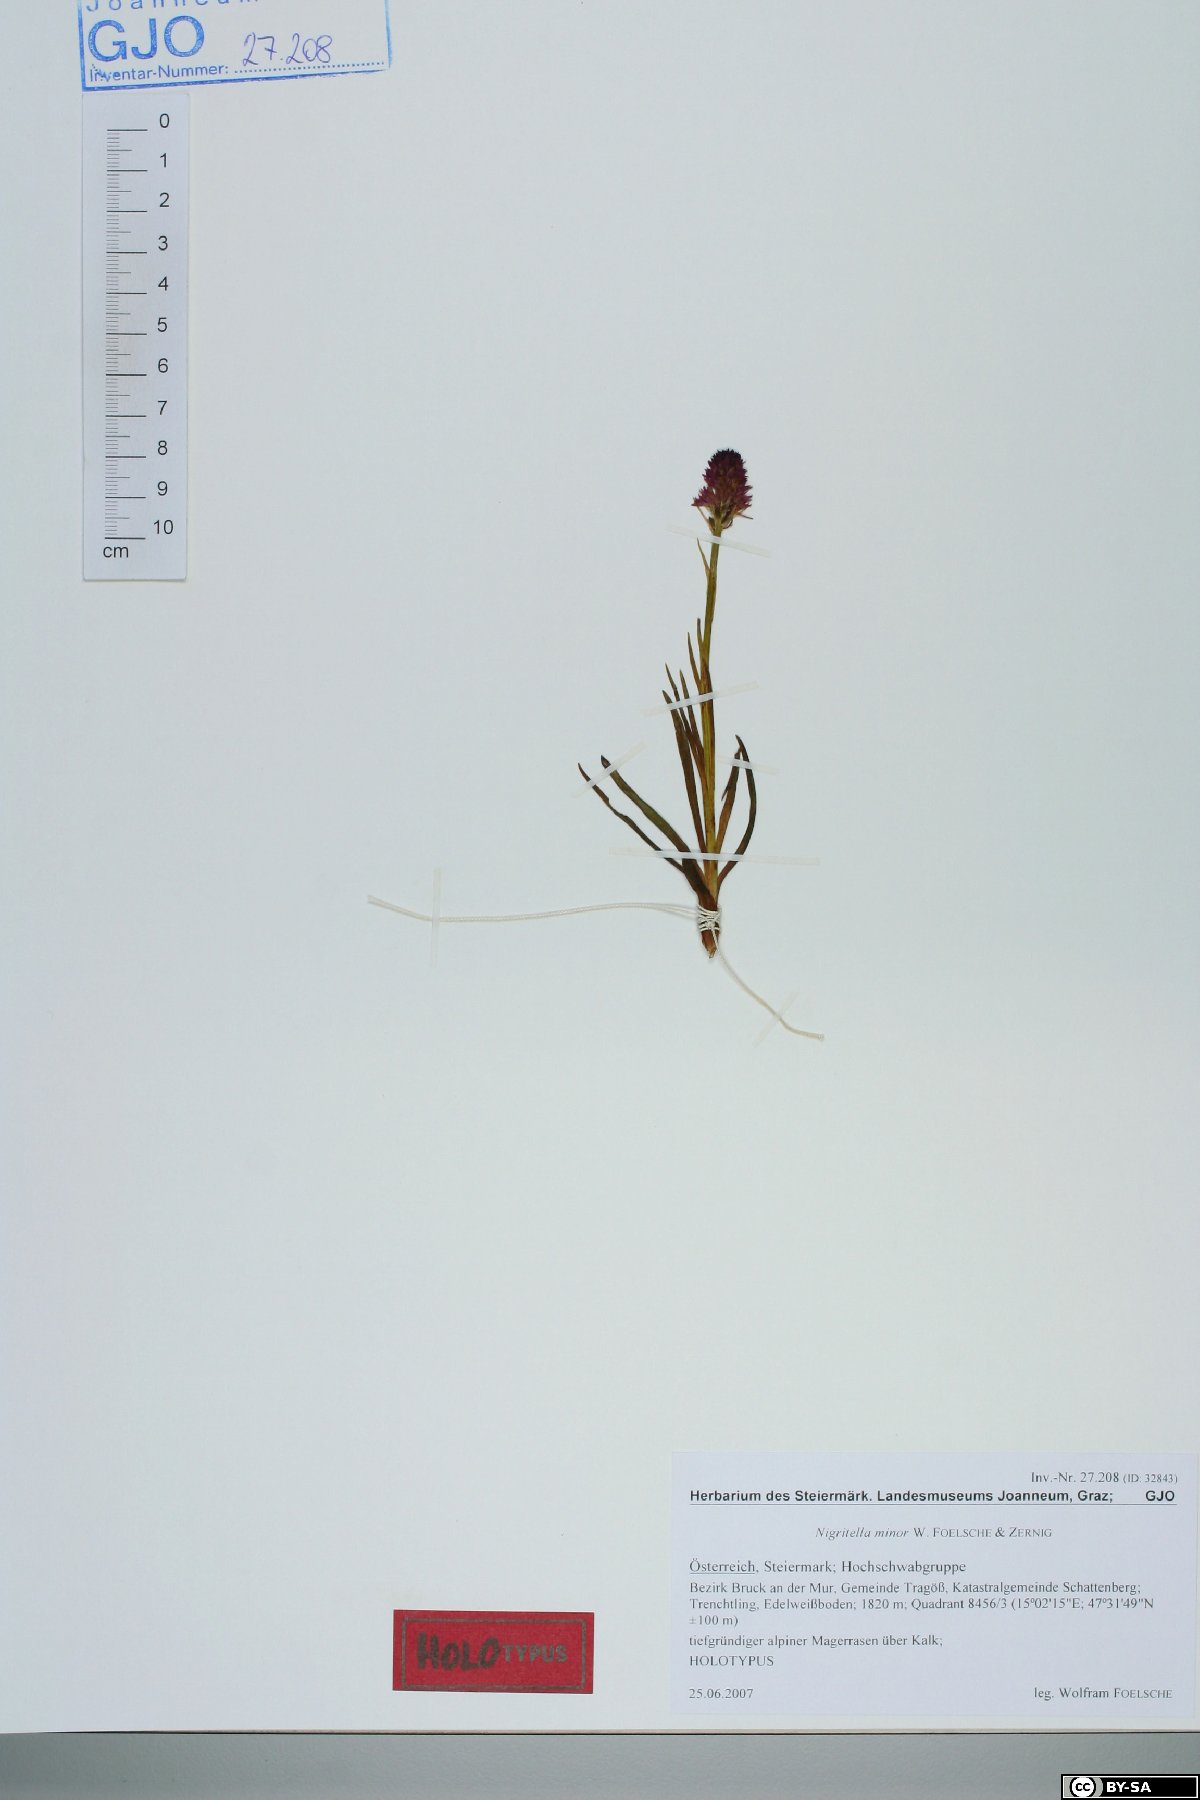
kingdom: Plantae
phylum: Tracheophyta
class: Liliopsida
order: Asparagales
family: Orchidaceae
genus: Gymnadenia
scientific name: Gymnadenia miniata
